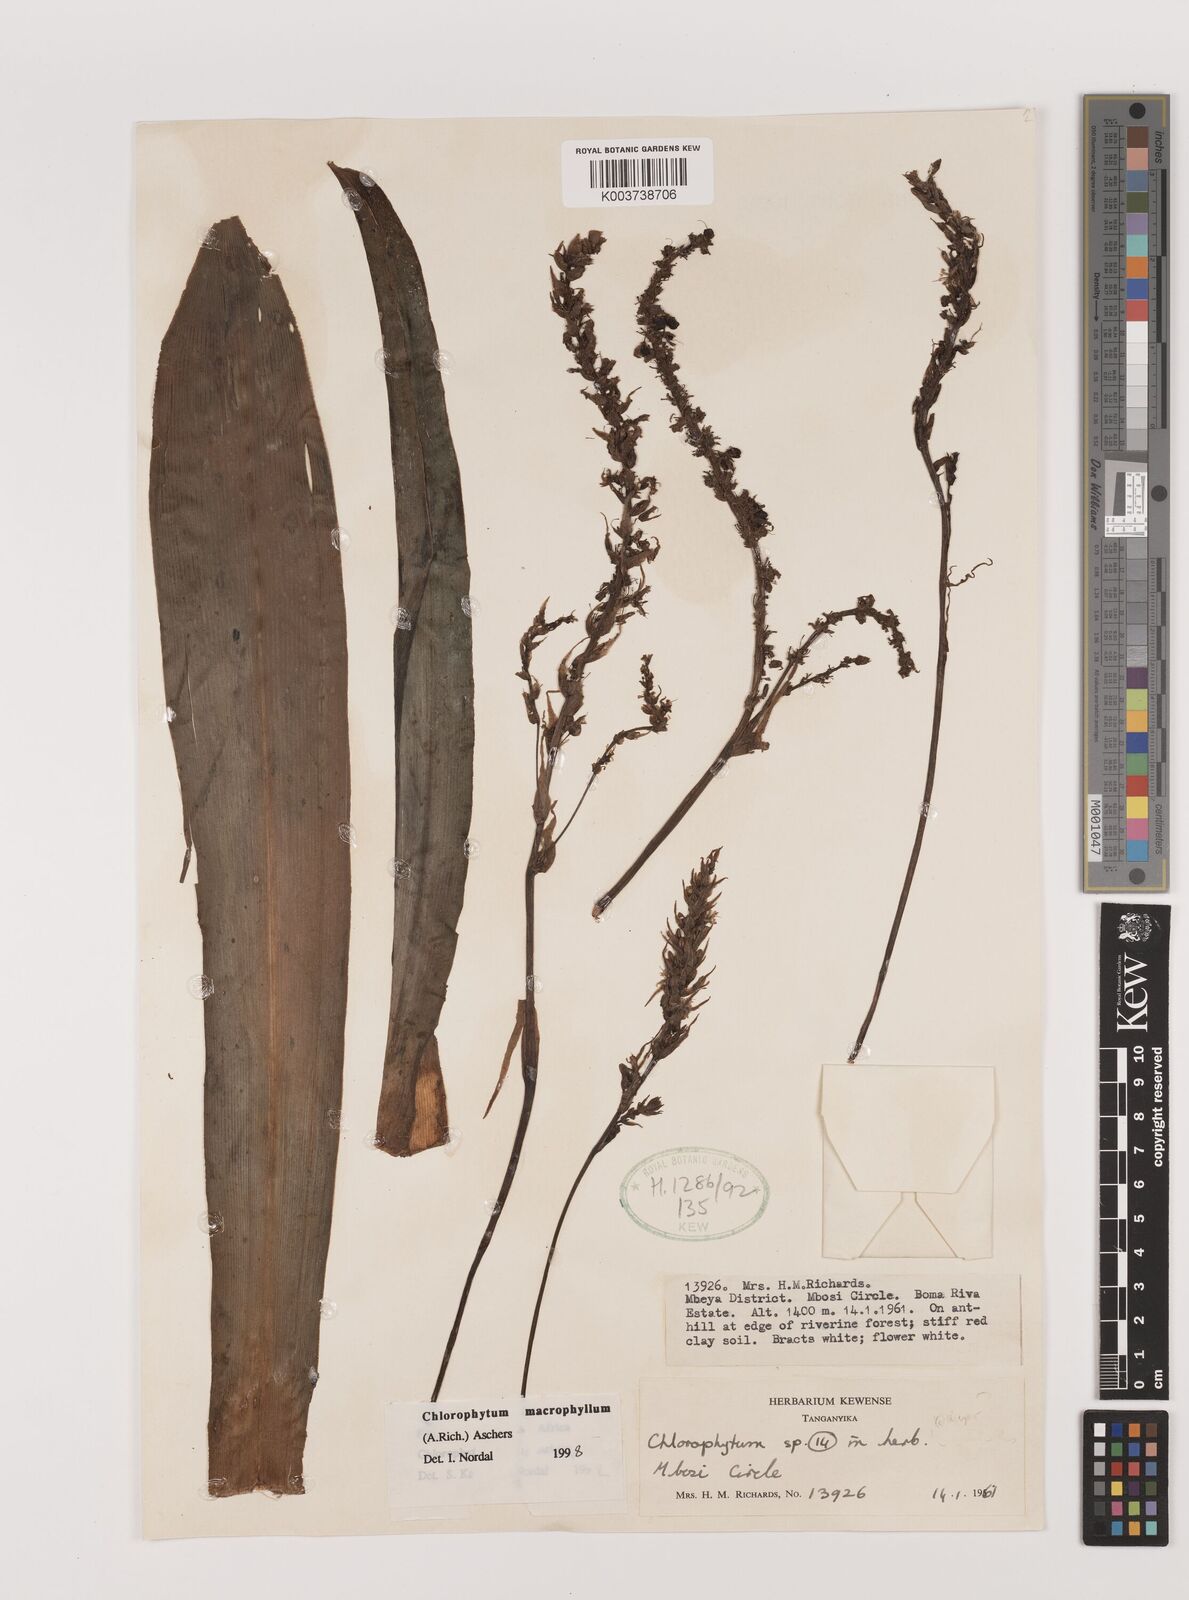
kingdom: Plantae
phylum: Tracheophyta
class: Liliopsida
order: Asparagales
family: Asparagaceae
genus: Chlorophytum
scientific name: Chlorophytum macrophyllum
